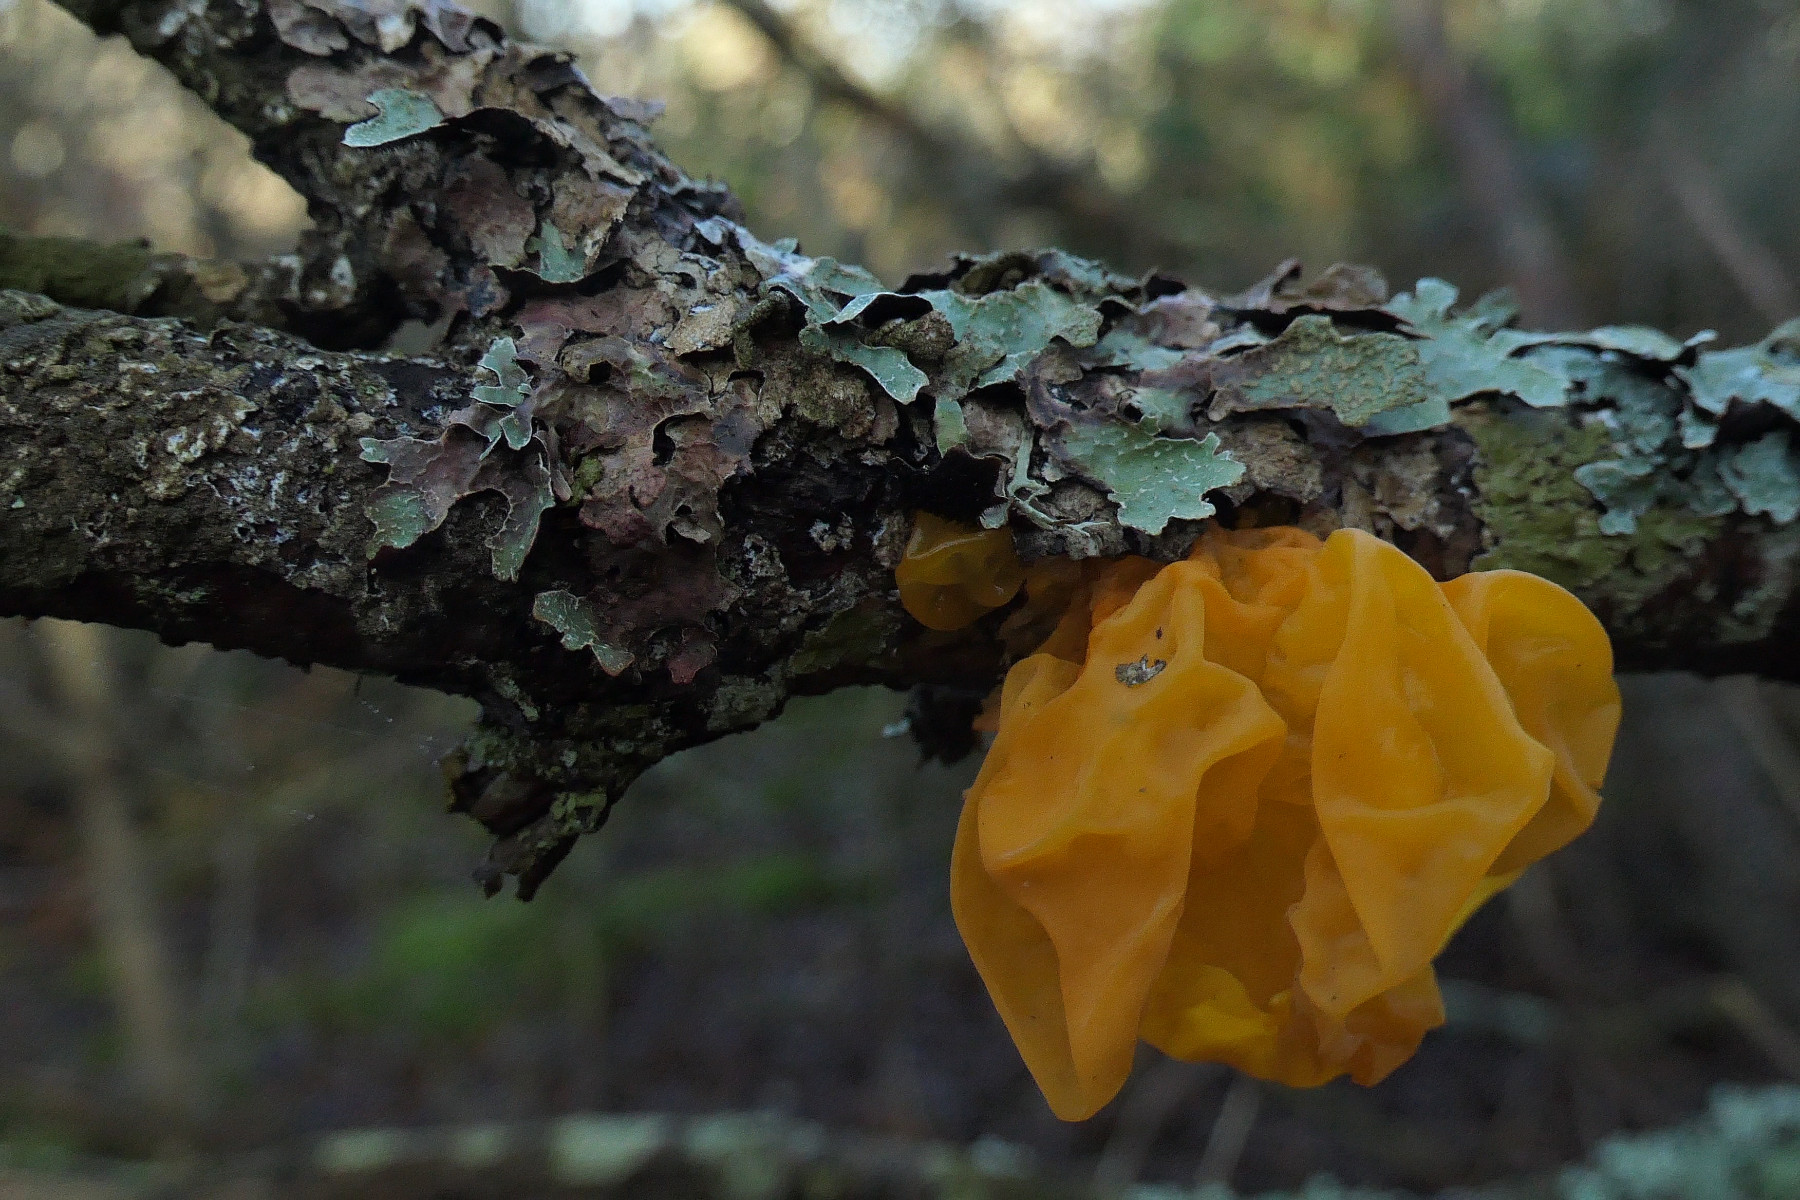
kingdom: Fungi
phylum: Basidiomycota
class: Tremellomycetes
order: Tremellales
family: Tremellaceae
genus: Tremella
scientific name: Tremella mesenterica
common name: gul bævresvamp
